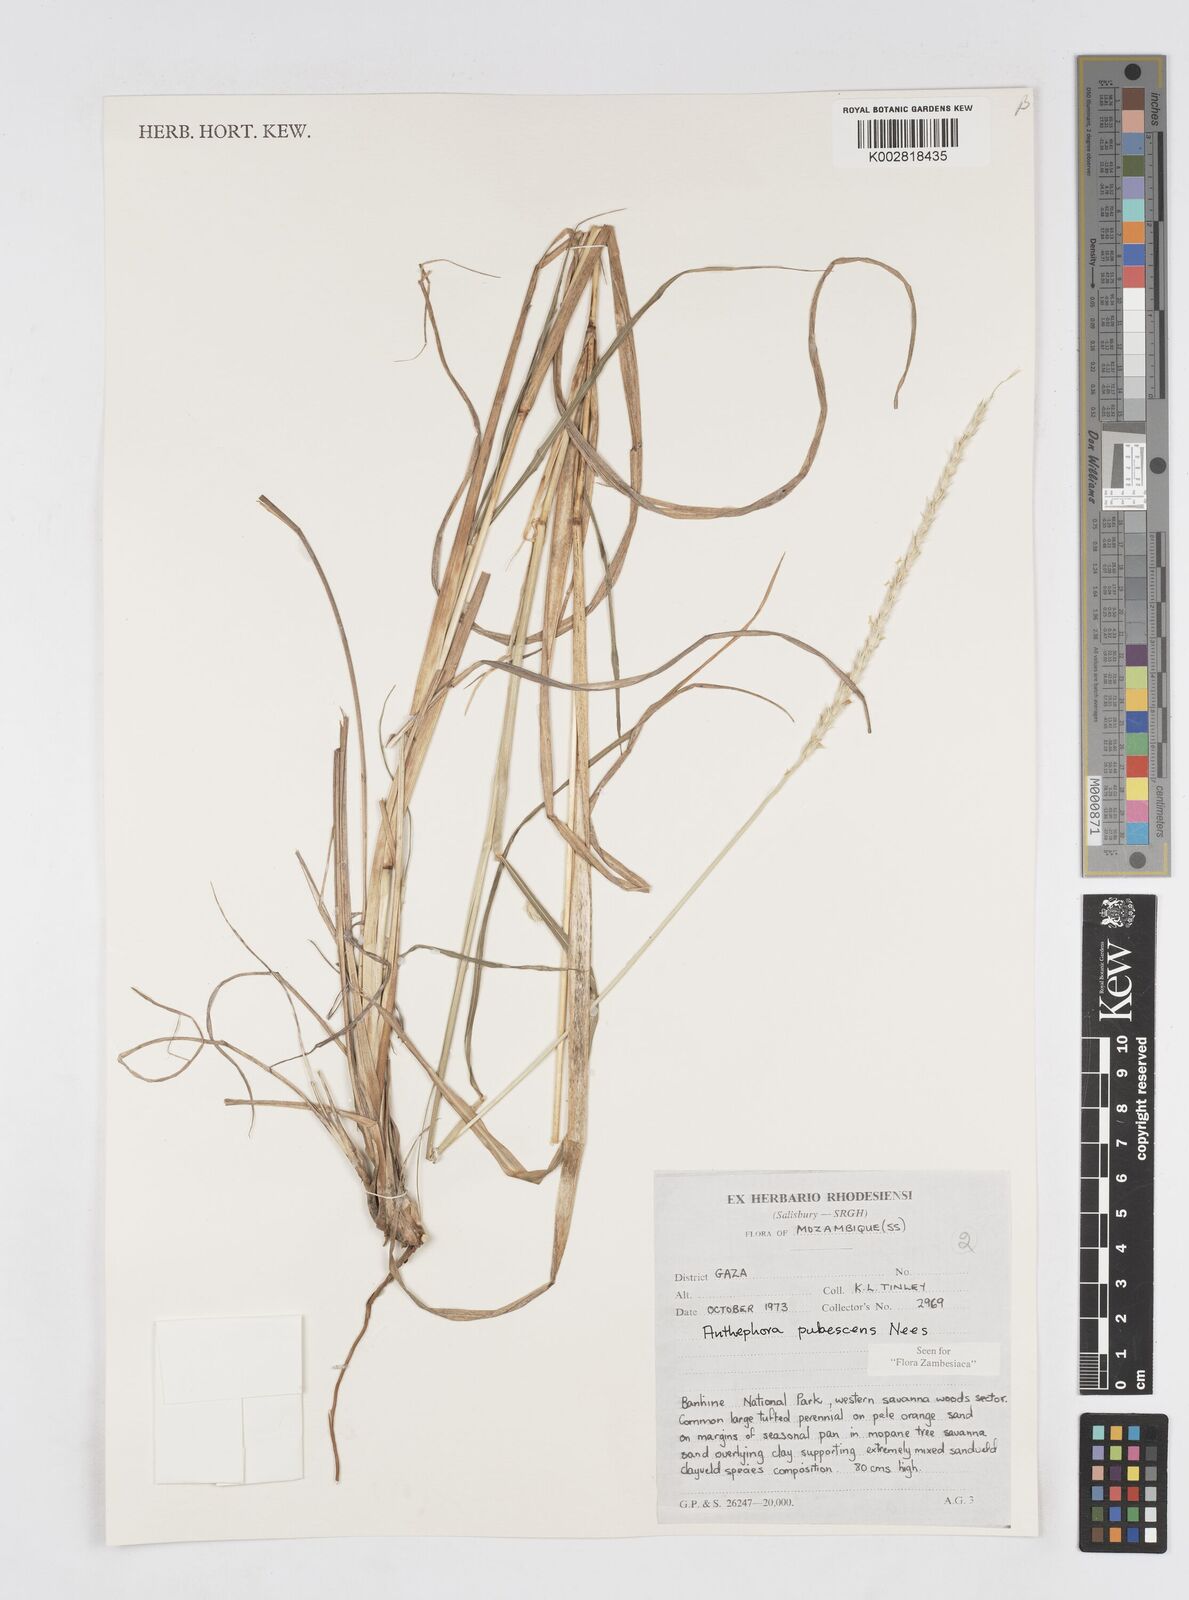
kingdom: Plantae
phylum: Tracheophyta
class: Liliopsida
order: Poales
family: Poaceae
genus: Anthephora
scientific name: Anthephora pubescens
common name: Wool grass
